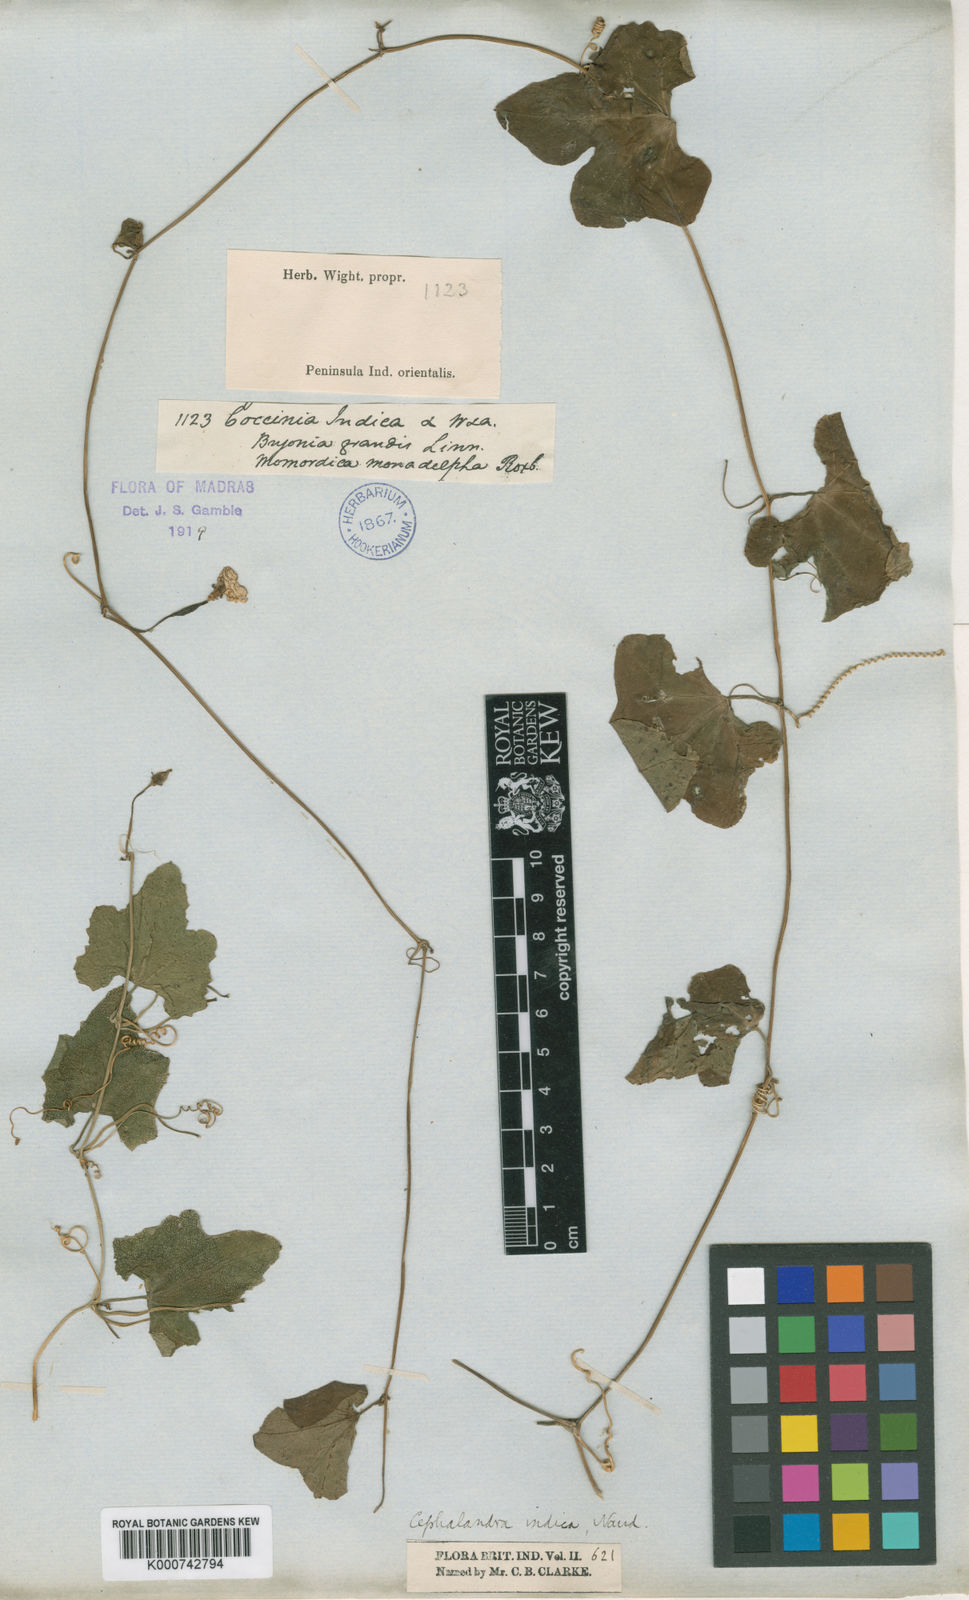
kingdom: Plantae
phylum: Tracheophyta
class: Magnoliopsida
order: Cucurbitales
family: Cucurbitaceae
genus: Coccinia
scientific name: Coccinia grandis
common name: Ivy gourd
